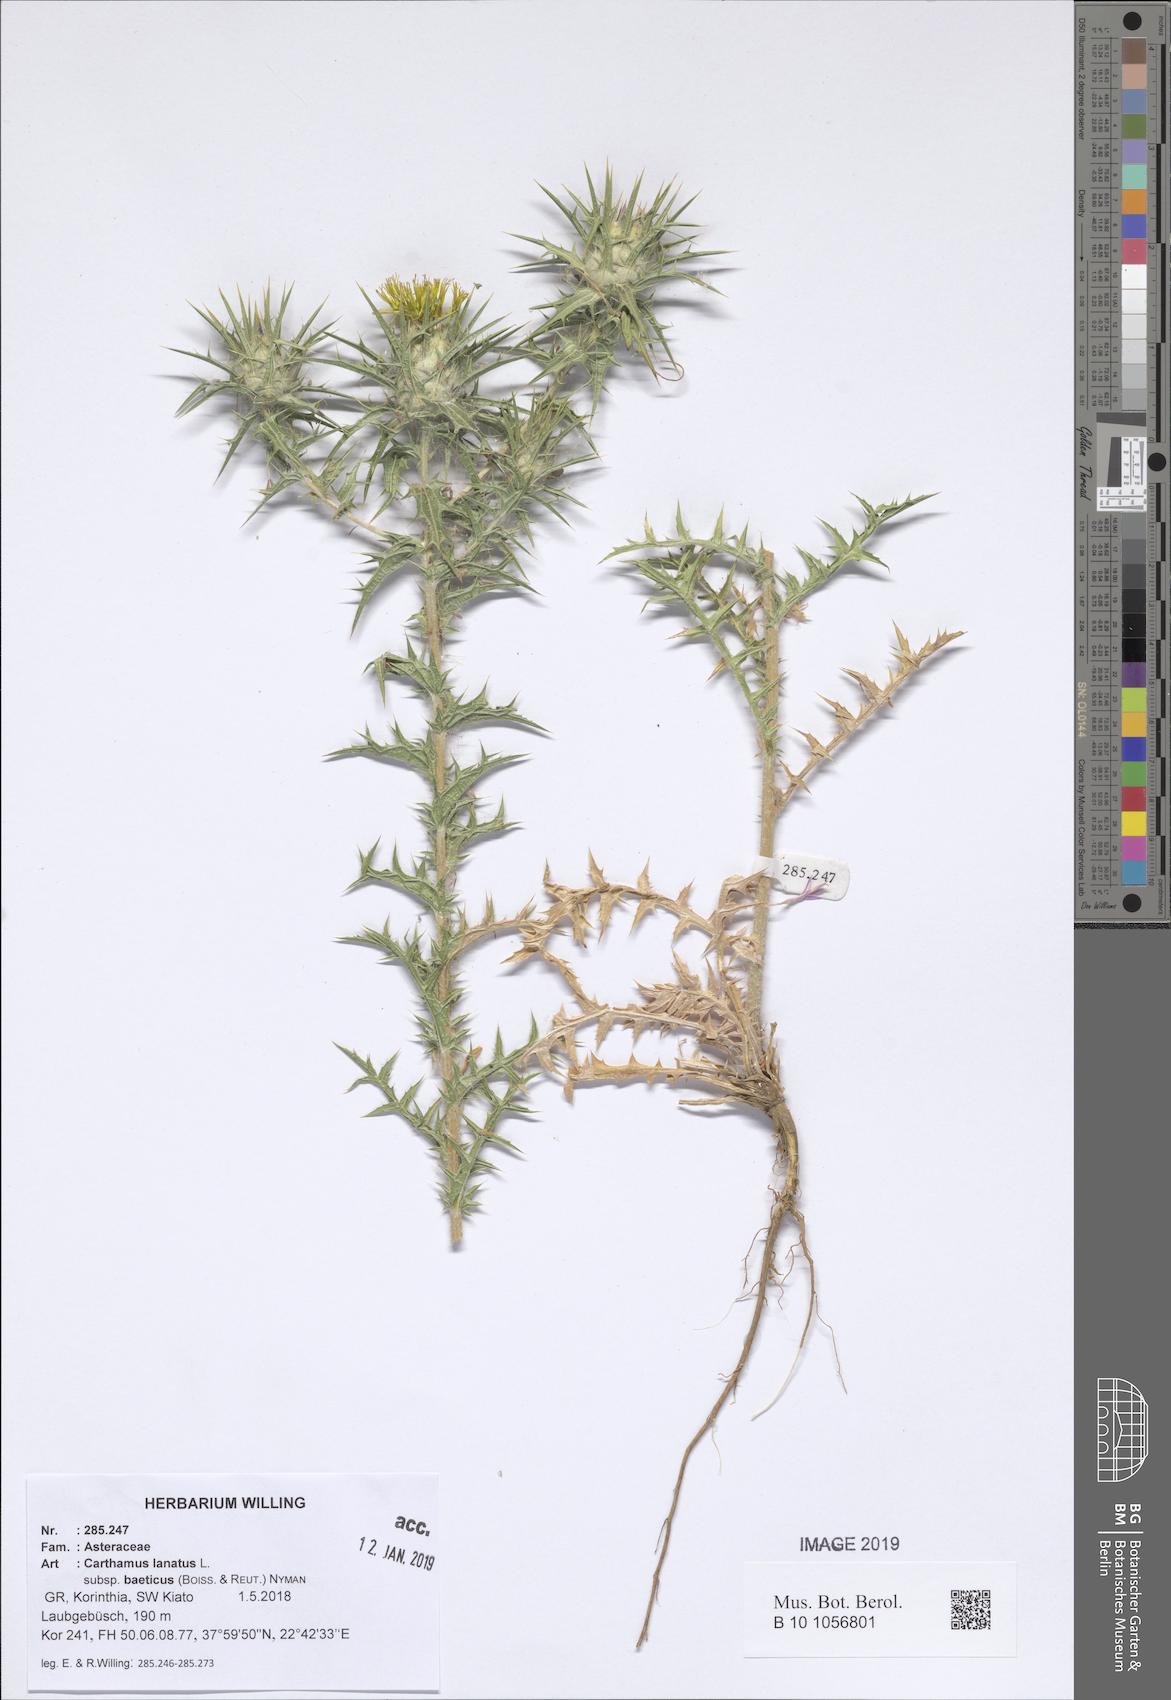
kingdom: Plantae
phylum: Tracheophyta
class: Magnoliopsida
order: Asterales
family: Asteraceae
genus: Carthamus
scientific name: Carthamus creticus
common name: Smooth distaff thistle
